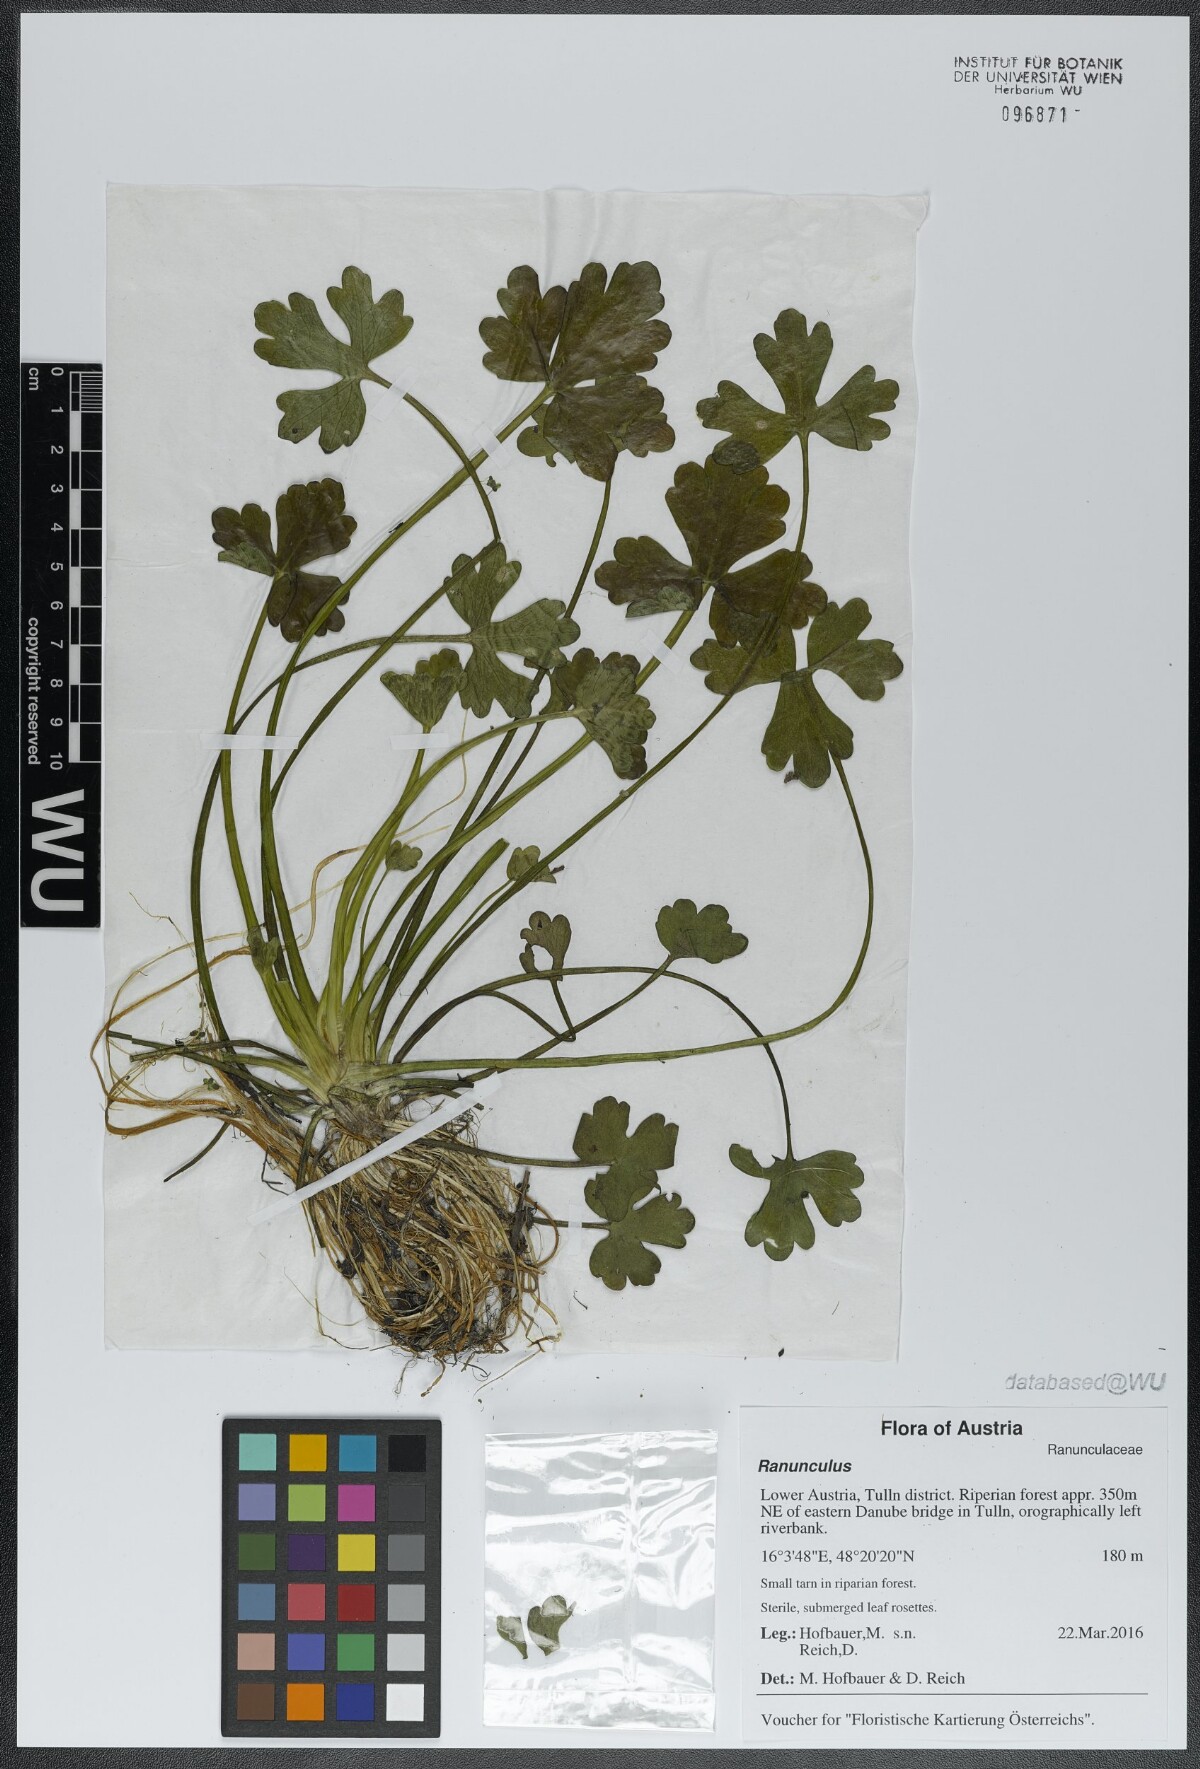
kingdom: Plantae
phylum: Tracheophyta
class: Magnoliopsida
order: Ranunculales
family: Ranunculaceae
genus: Ranunculus
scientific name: Ranunculus
